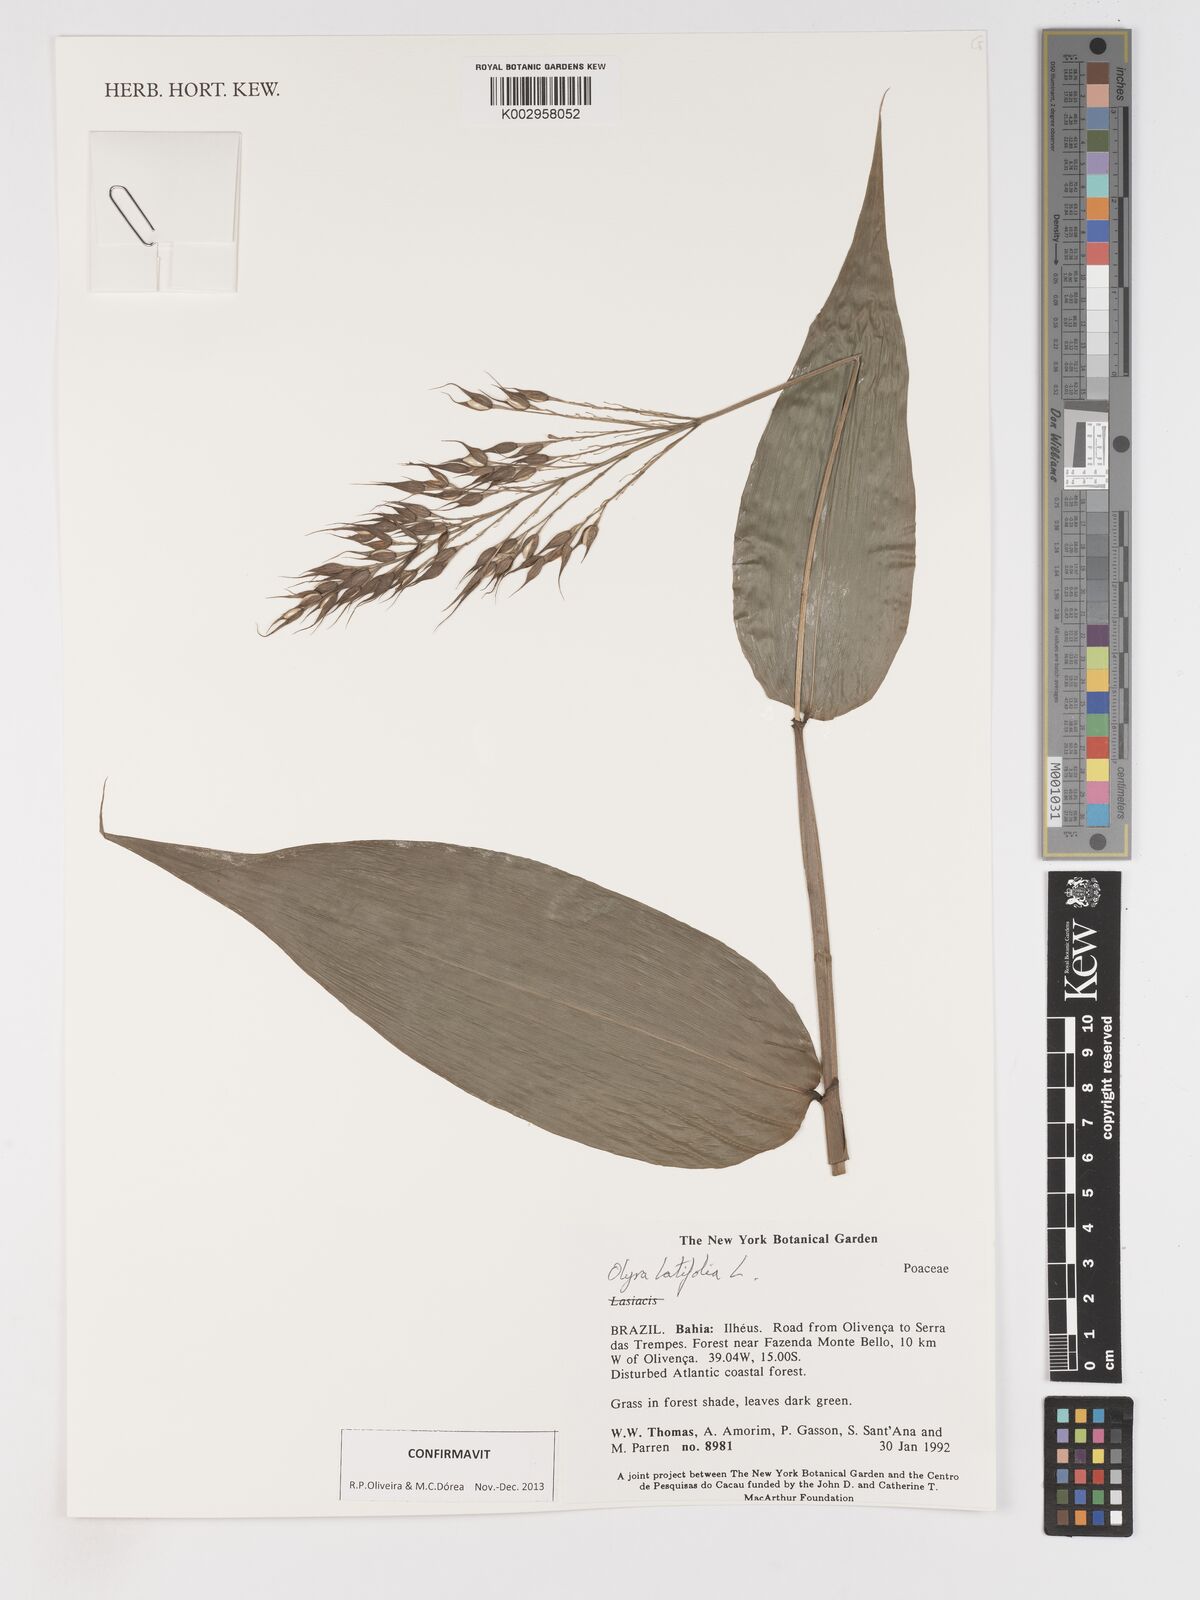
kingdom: Plantae
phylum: Tracheophyta
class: Liliopsida
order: Poales
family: Poaceae
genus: Olyra
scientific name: Olyra latifolia
